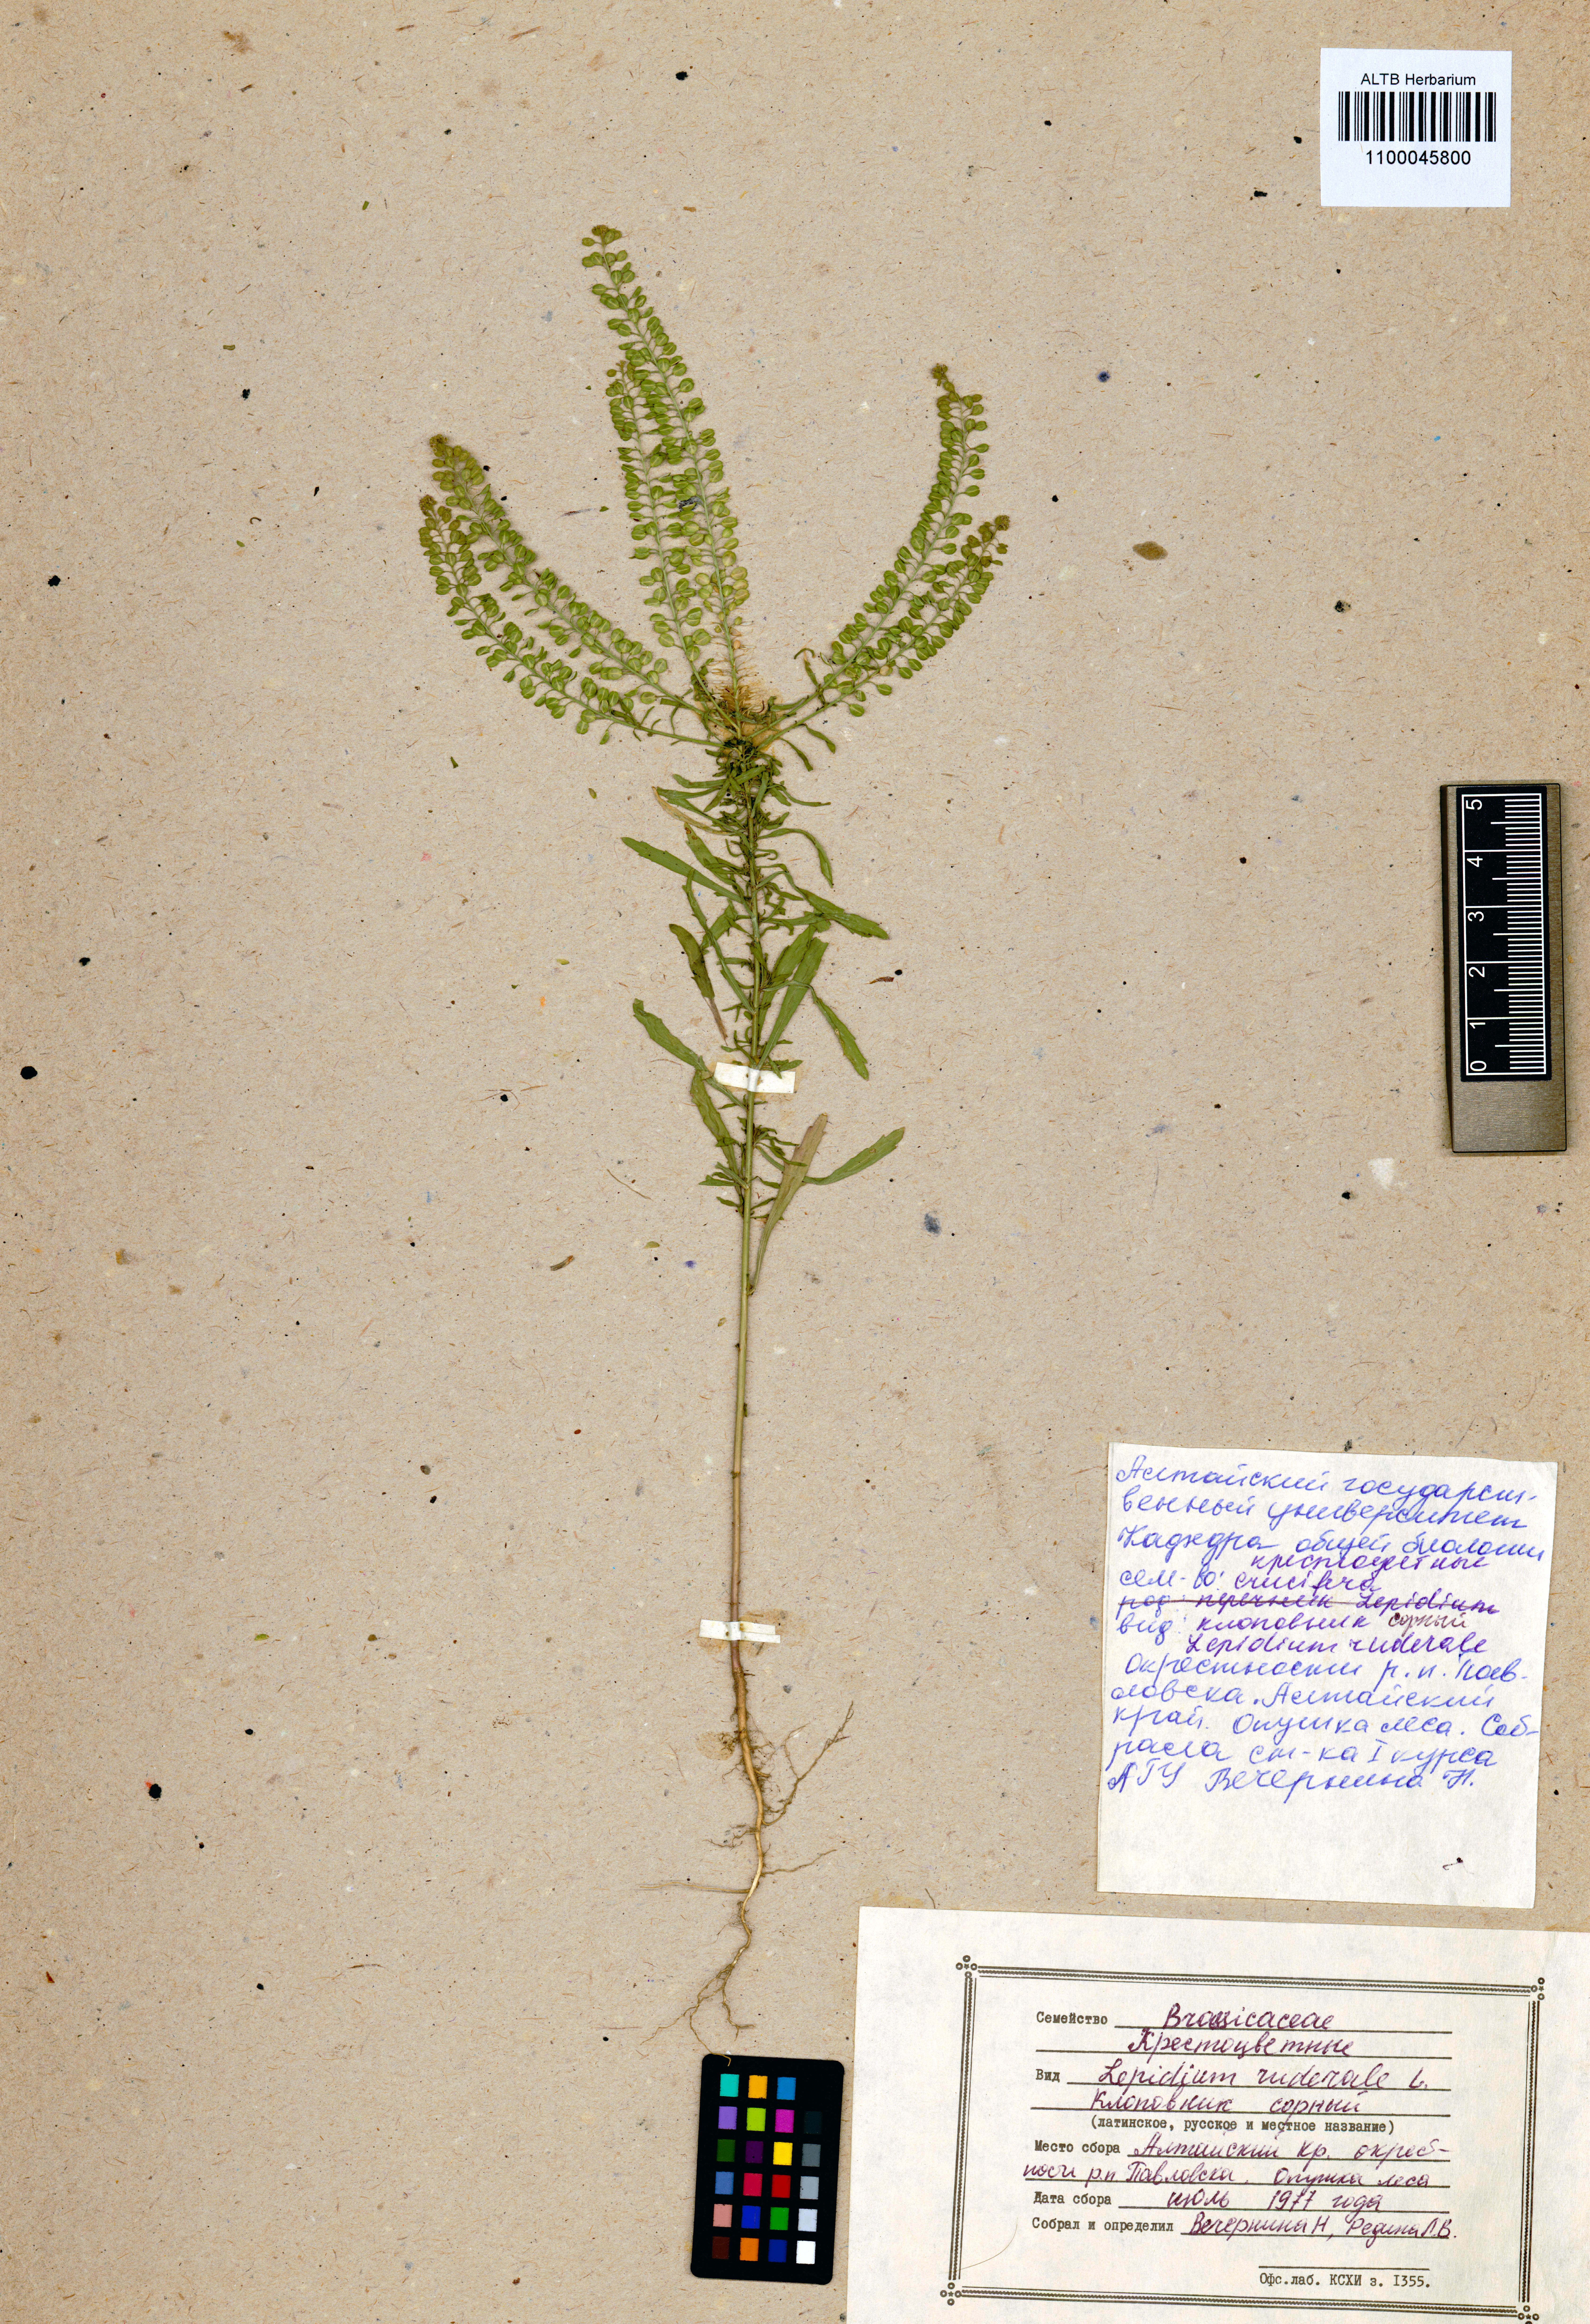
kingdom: Plantae
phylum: Tracheophyta
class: Magnoliopsida
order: Brassicales
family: Brassicaceae
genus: Lepidium
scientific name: Lepidium densiflorum
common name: Miner's pepperwort
